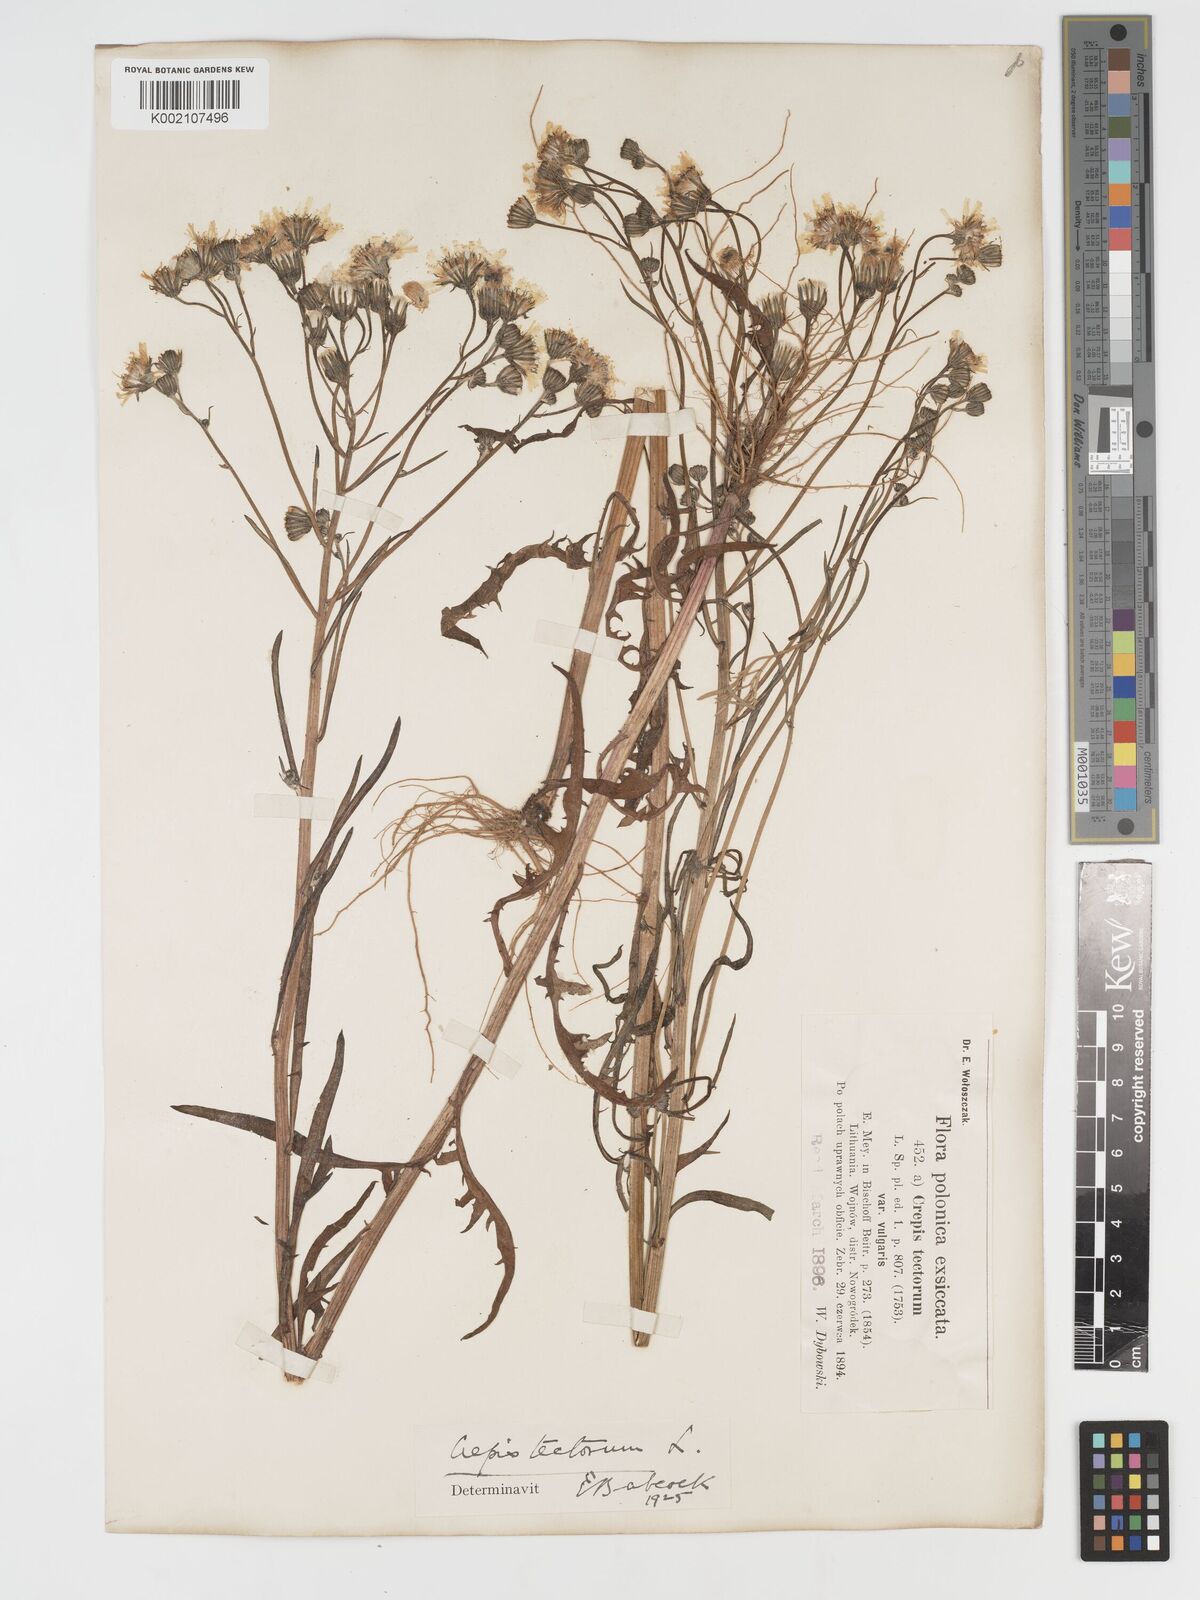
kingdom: Plantae
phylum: Tracheophyta
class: Magnoliopsida
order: Asterales
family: Asteraceae
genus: Crepis
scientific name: Crepis tectorum
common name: Narrow-leaved hawk's-beard
